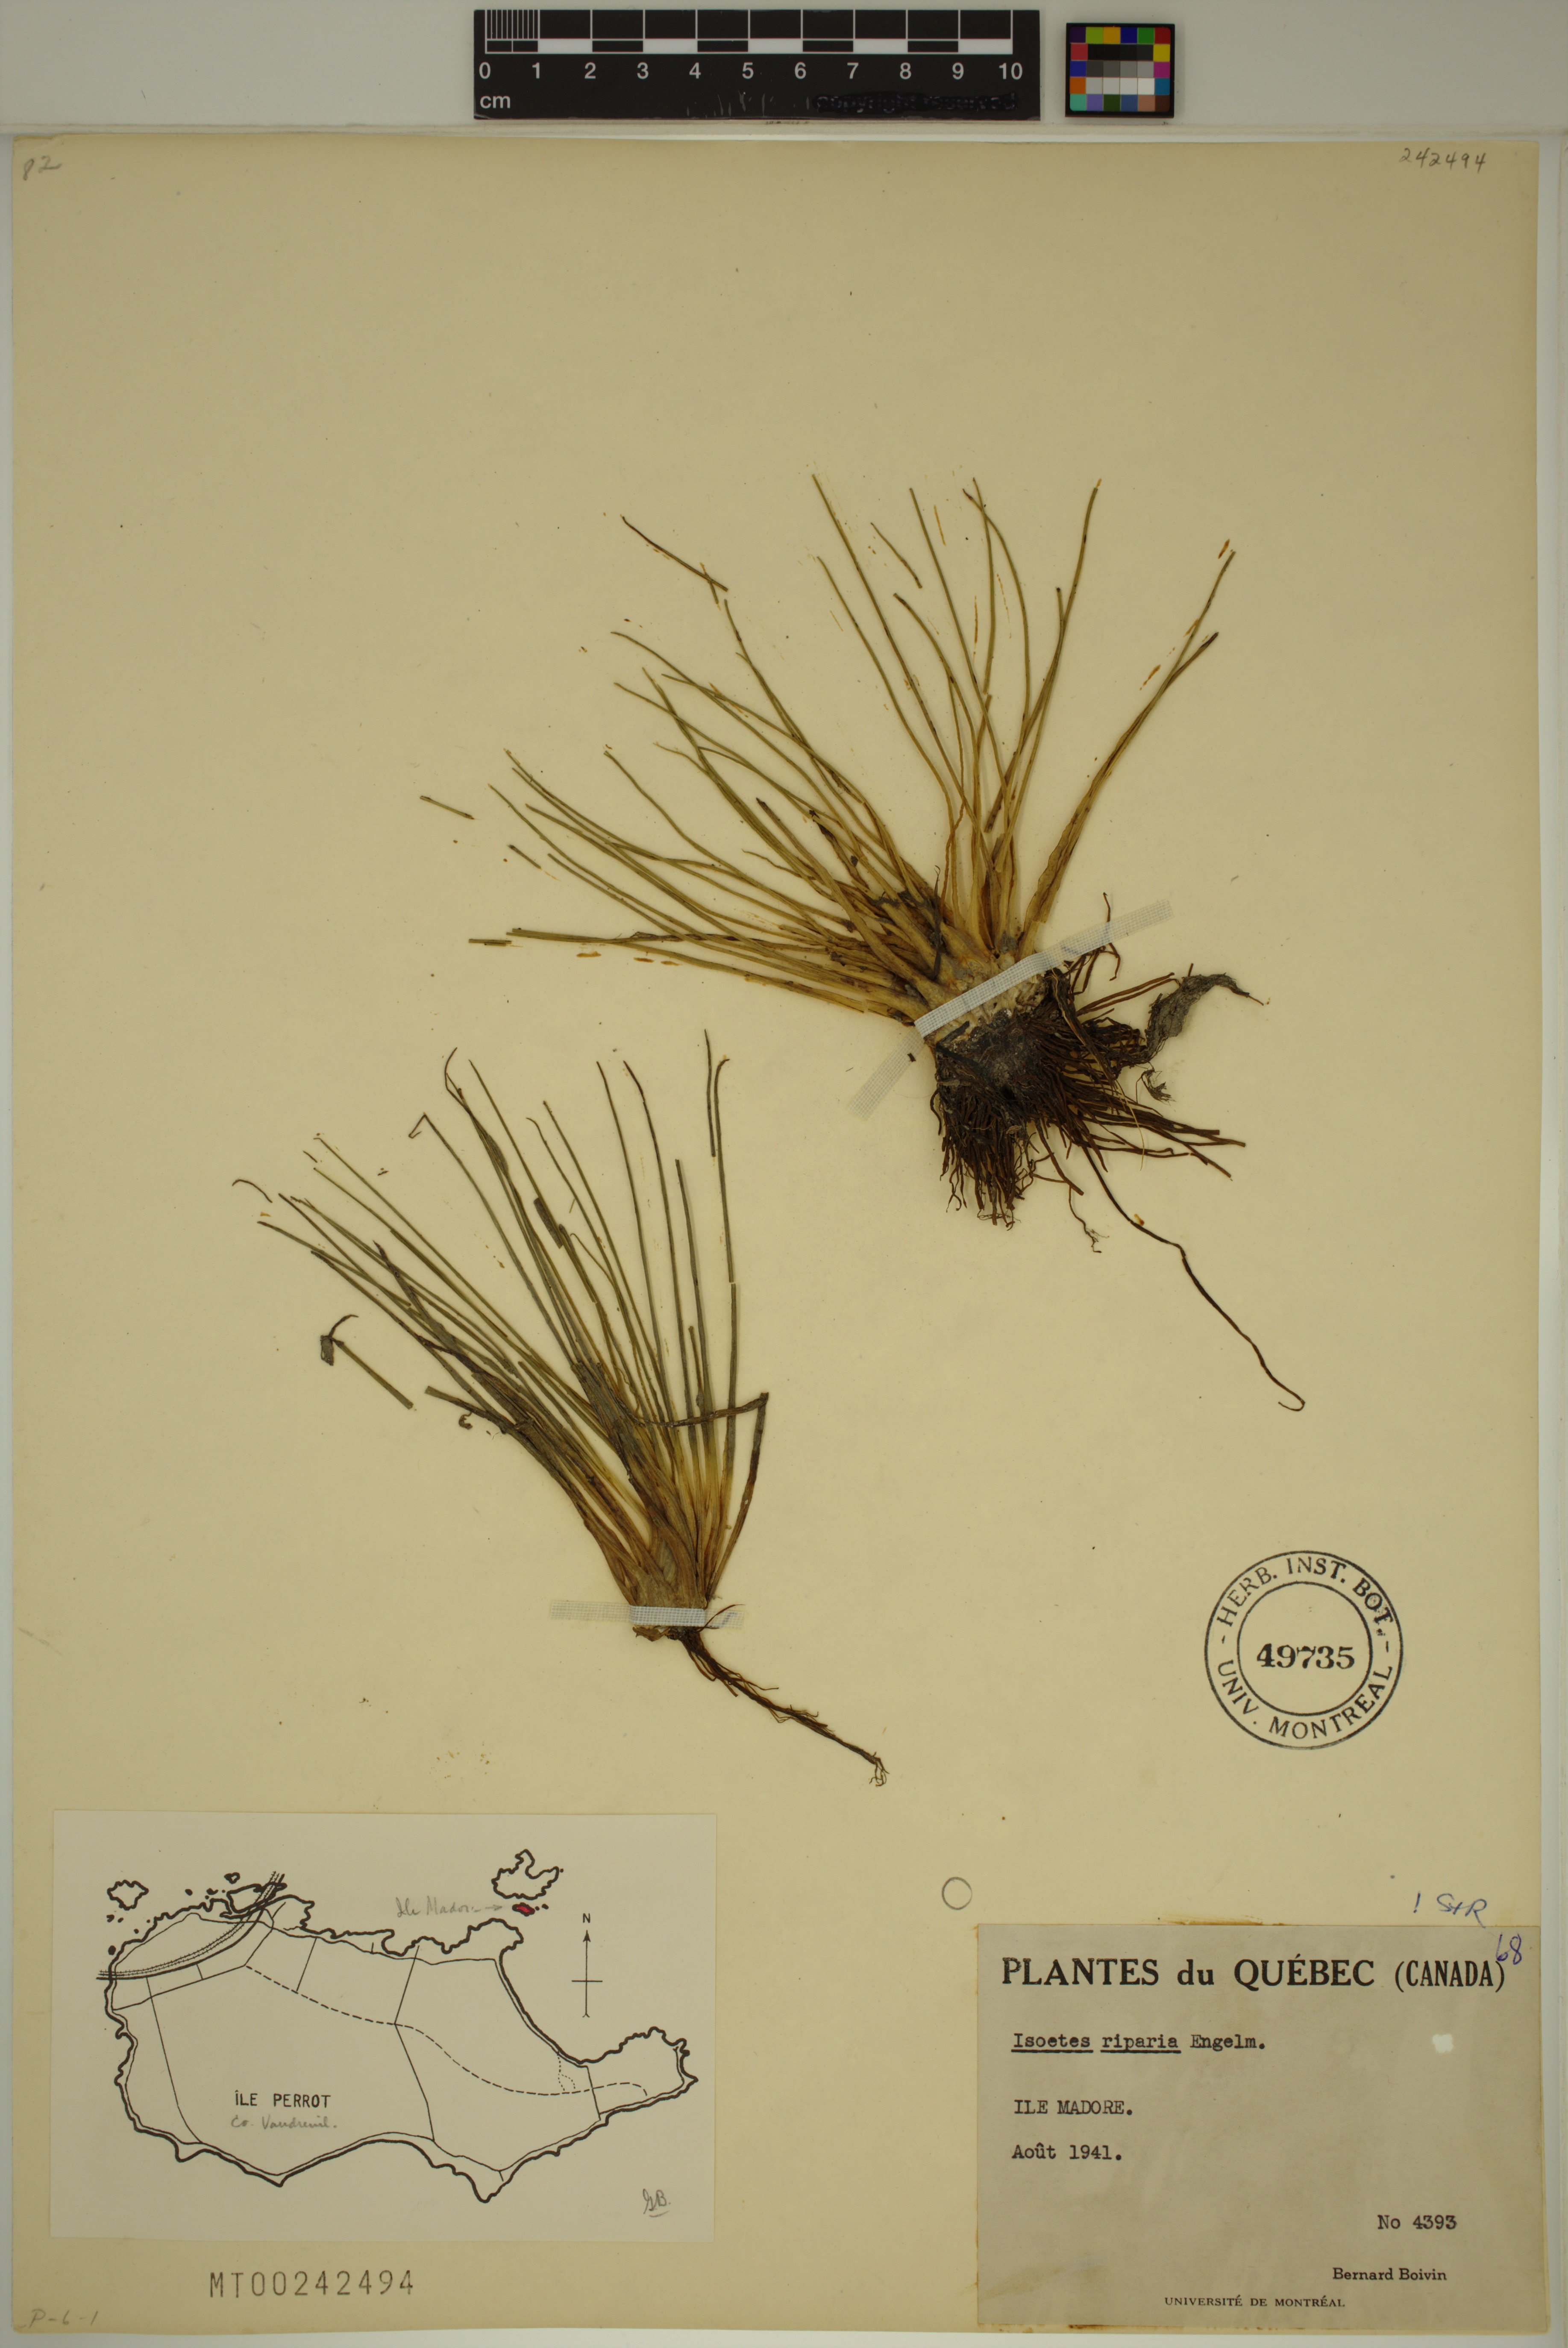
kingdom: Plantae
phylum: Tracheophyta
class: Lycopodiopsida
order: Isoetales
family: Isoetaceae
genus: Isoetes
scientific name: Isoetes riparia
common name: Riverbank quillwort
